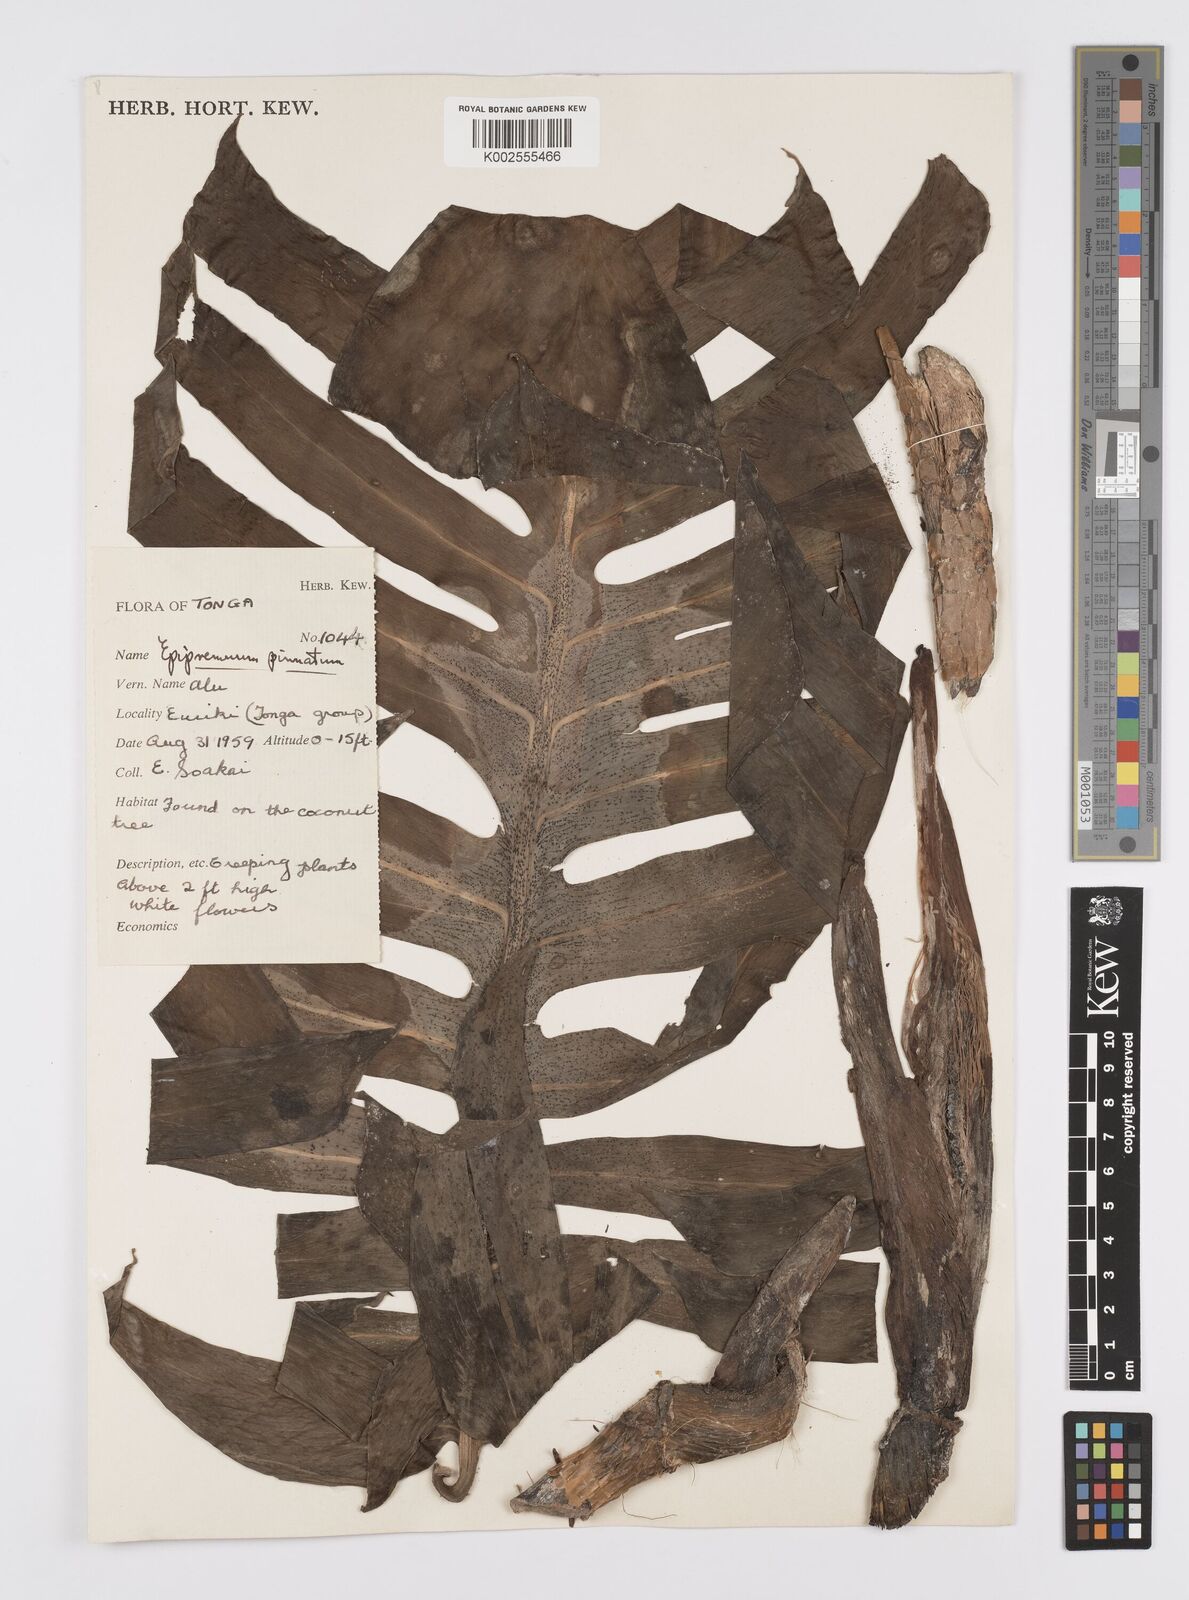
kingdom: Plantae
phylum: Tracheophyta
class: Liliopsida
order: Alismatales
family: Araceae
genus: Epipremnum
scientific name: Epipremnum pinnatum
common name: Centipede tongavine
